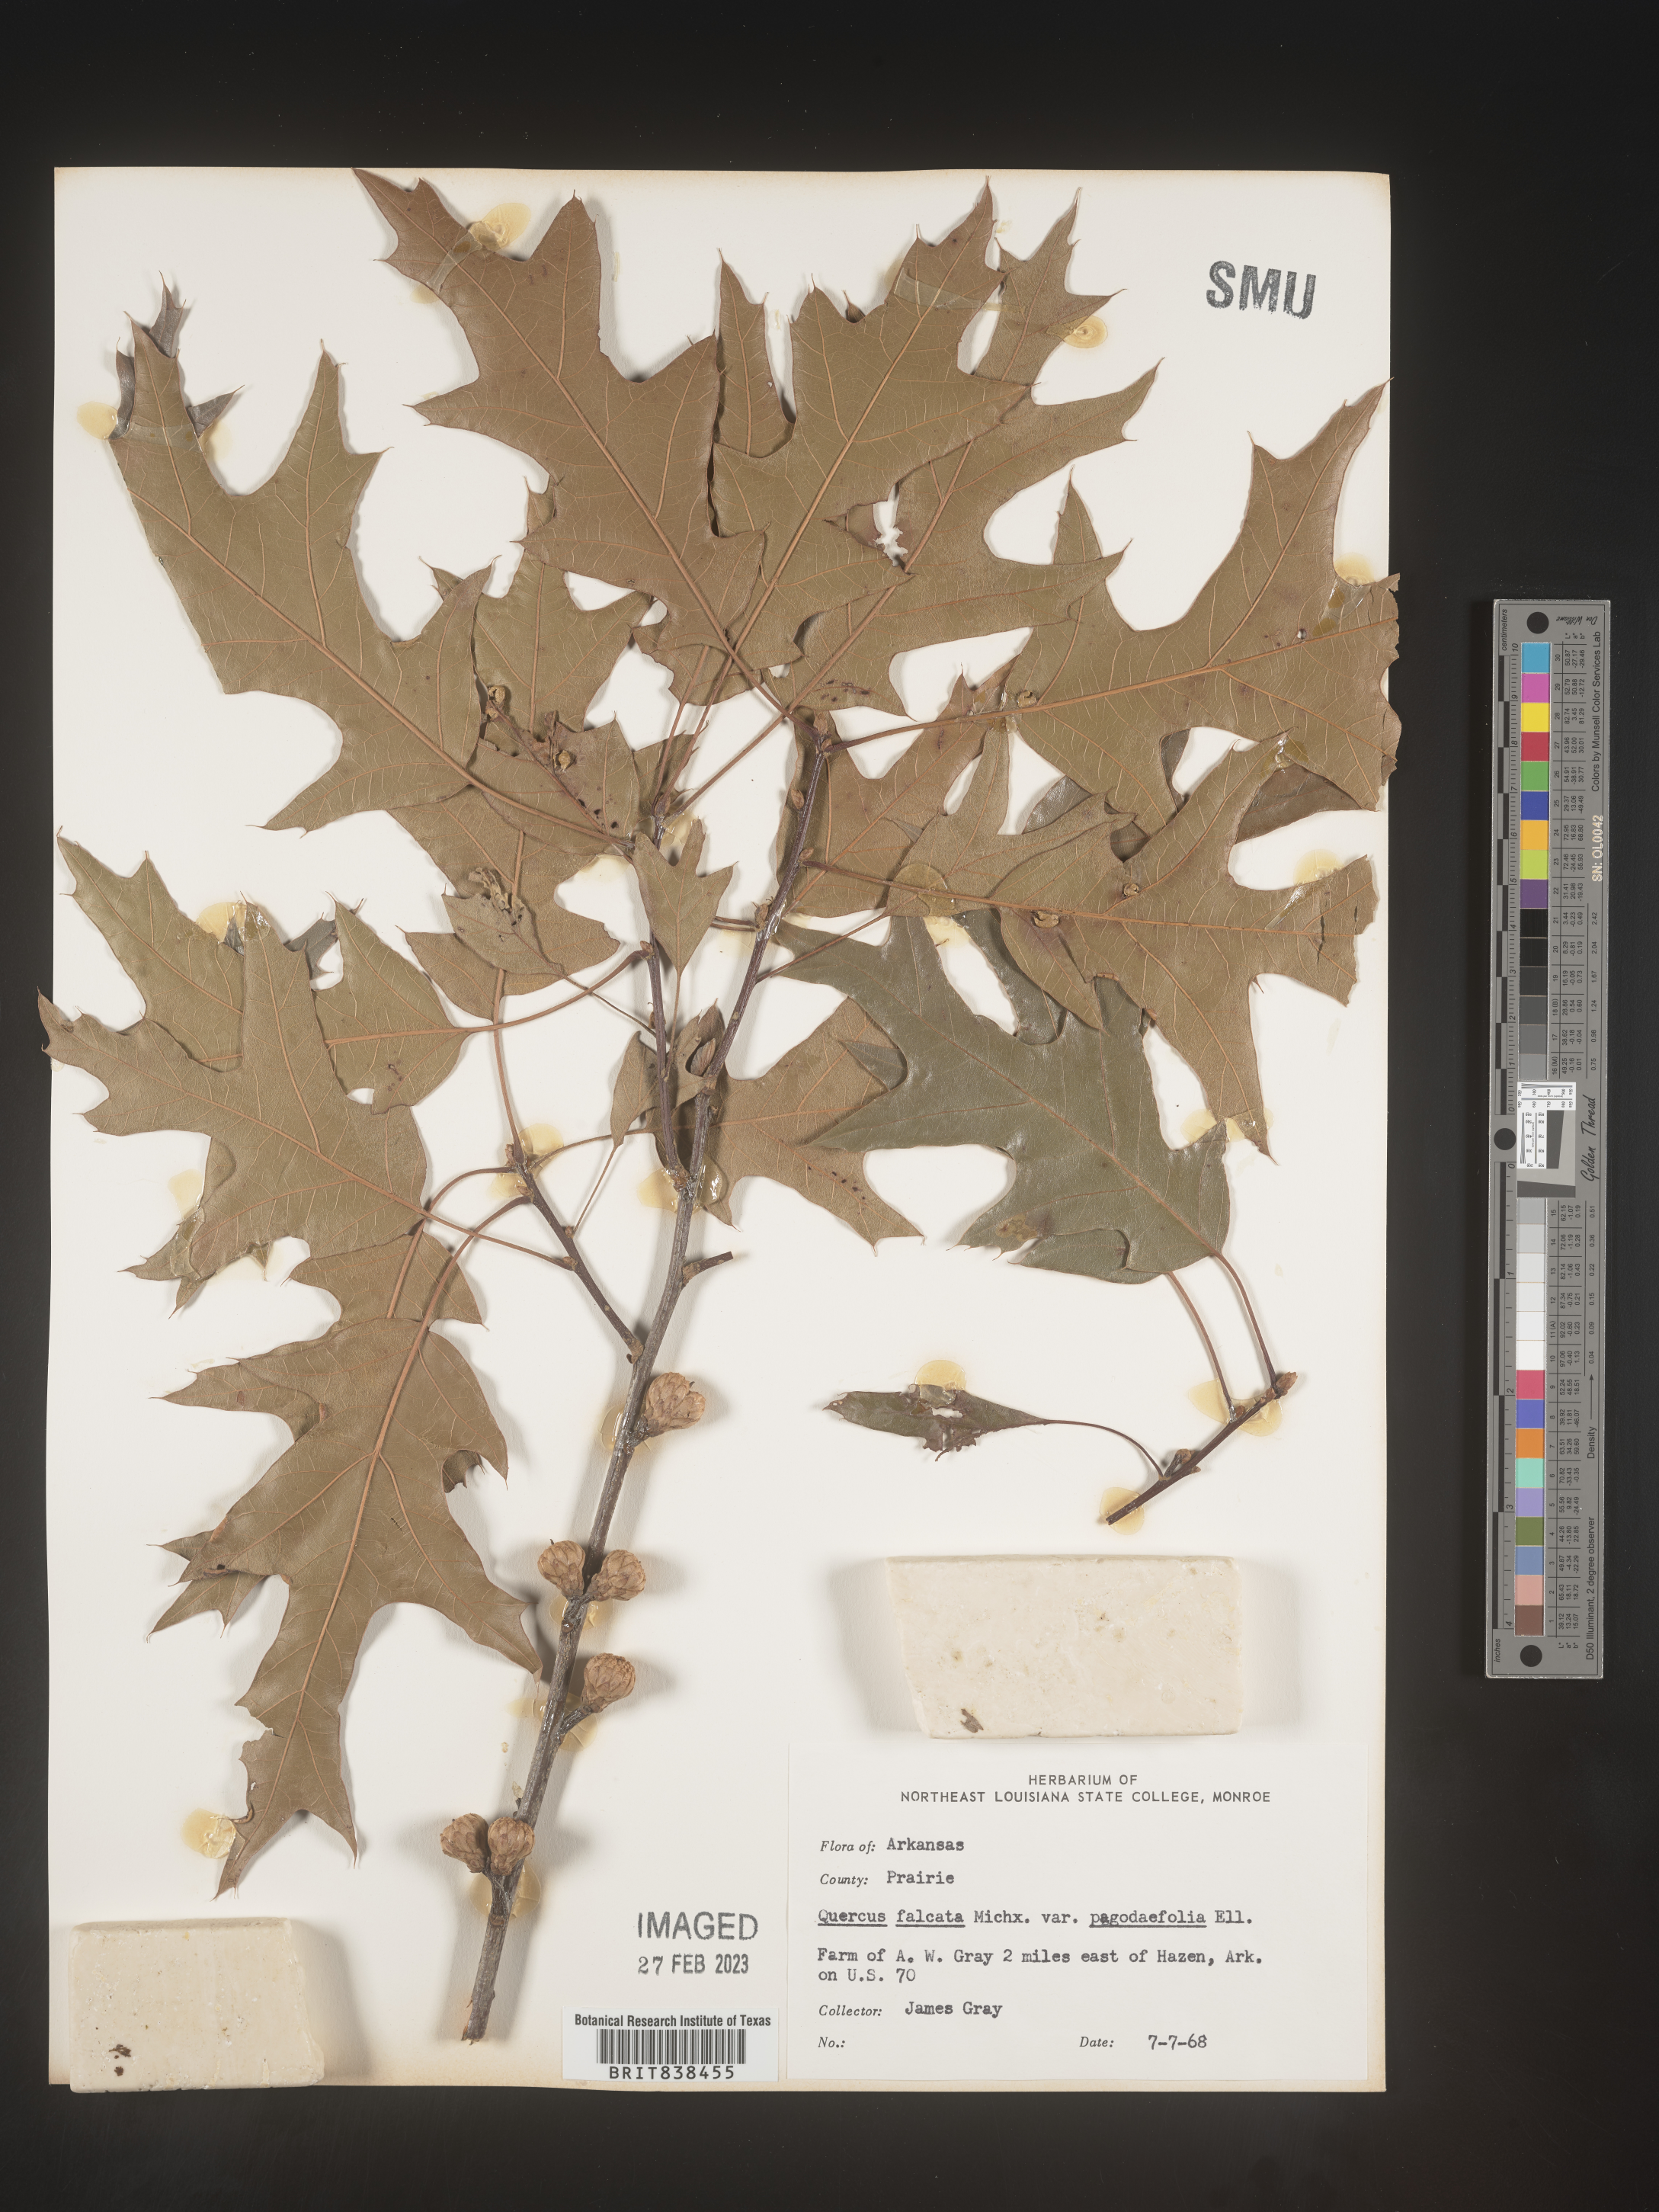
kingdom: Plantae
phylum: Tracheophyta
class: Magnoliopsida
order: Fagales
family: Fagaceae
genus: Quercus
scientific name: Quercus falcata
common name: Southern red oak
